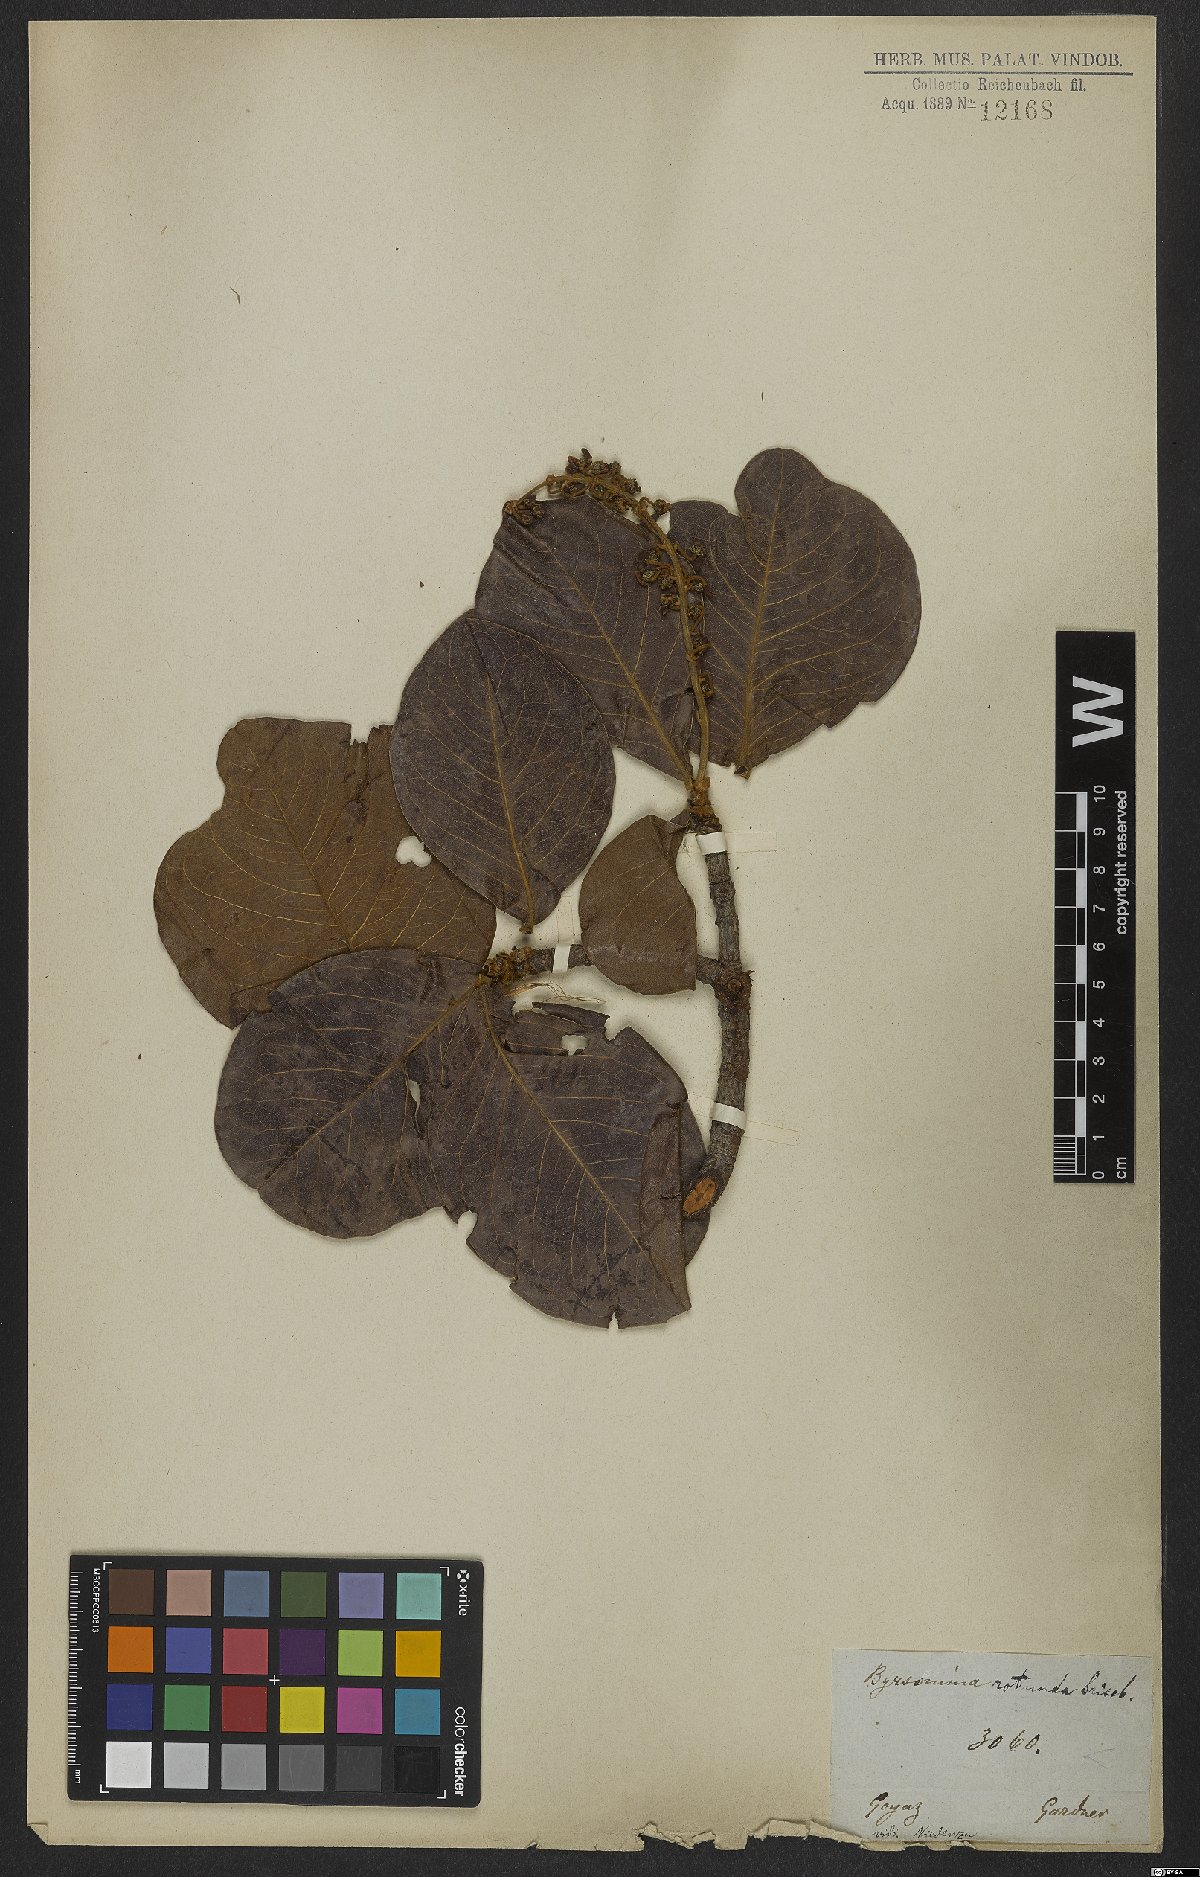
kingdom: Plantae
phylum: Tracheophyta
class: Magnoliopsida
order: Malpighiales
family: Malpighiaceae
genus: Byrsonima
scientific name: Byrsonima rotunda
